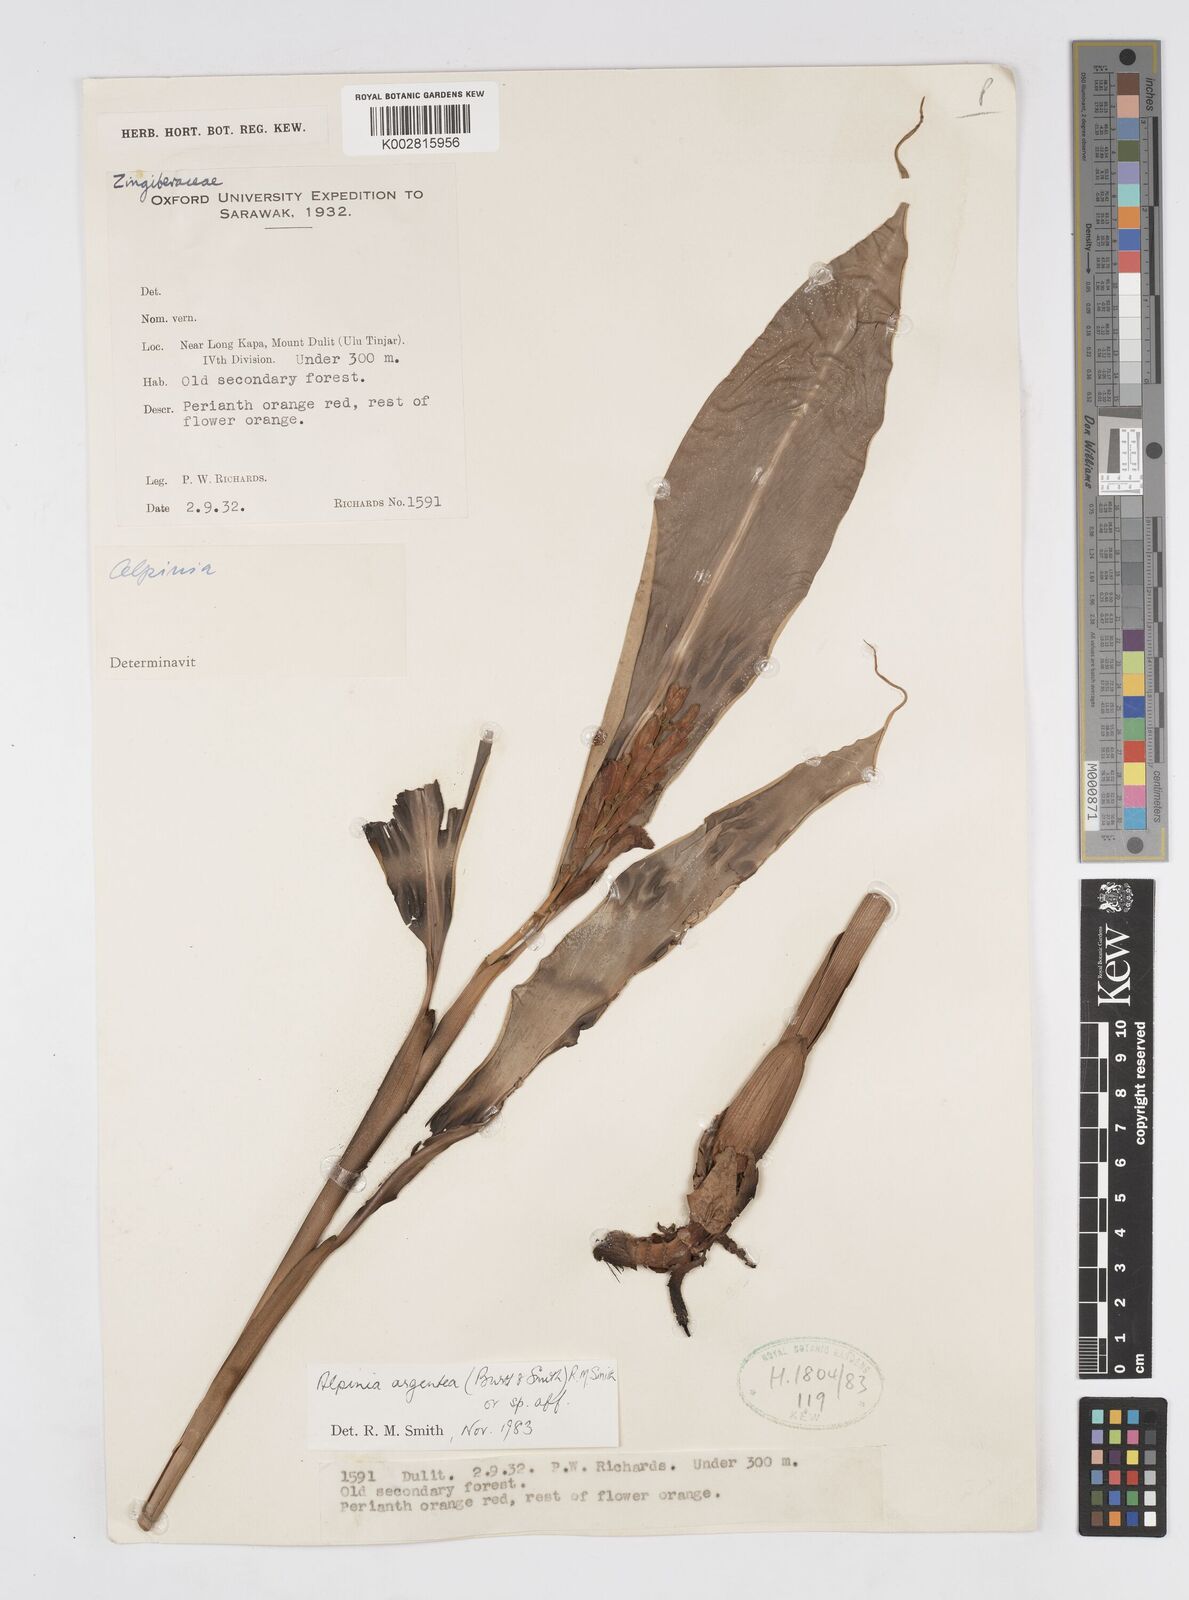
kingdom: Plantae
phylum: Tracheophyta
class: Liliopsida
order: Zingiberales
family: Zingiberaceae
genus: Alpinia
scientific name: Alpinia argentea
